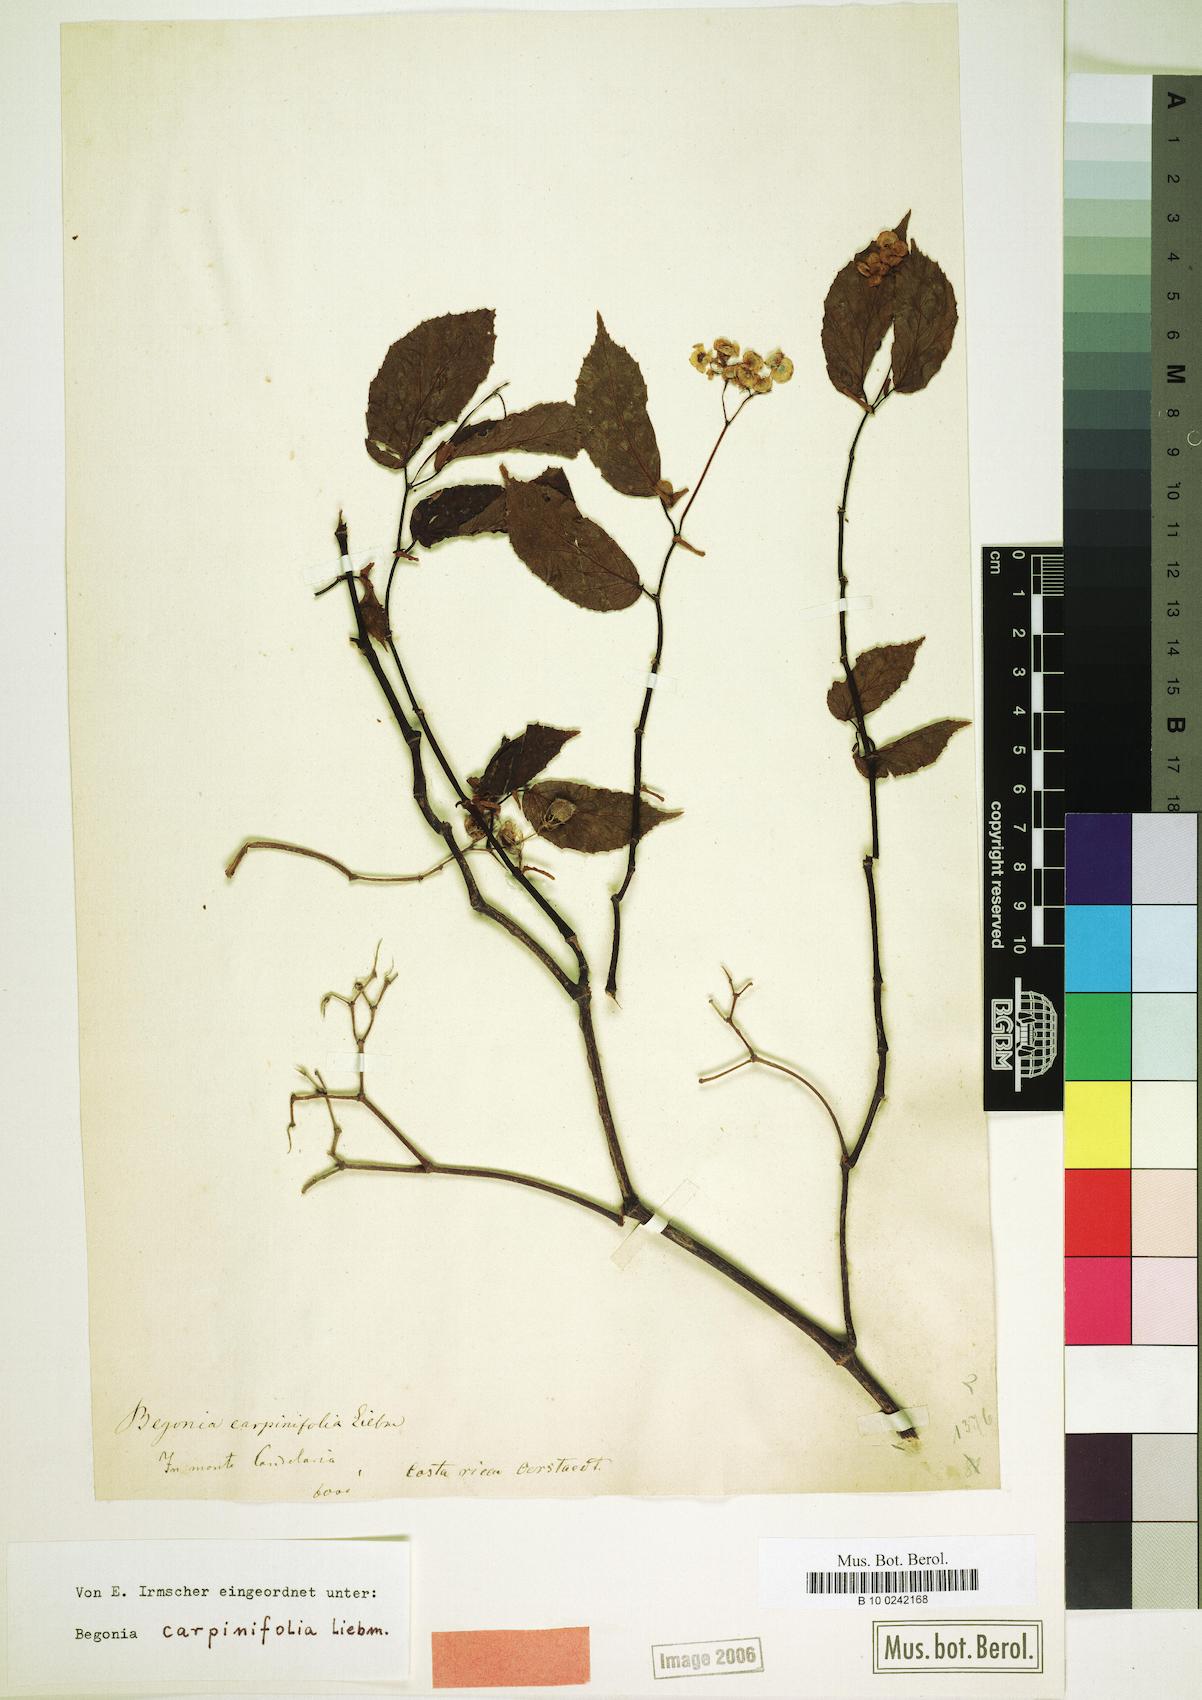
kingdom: Plantae
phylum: Tracheophyta
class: Magnoliopsida
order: Cucurbitales
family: Begoniaceae
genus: Begonia
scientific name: Begonia carpinifolia
